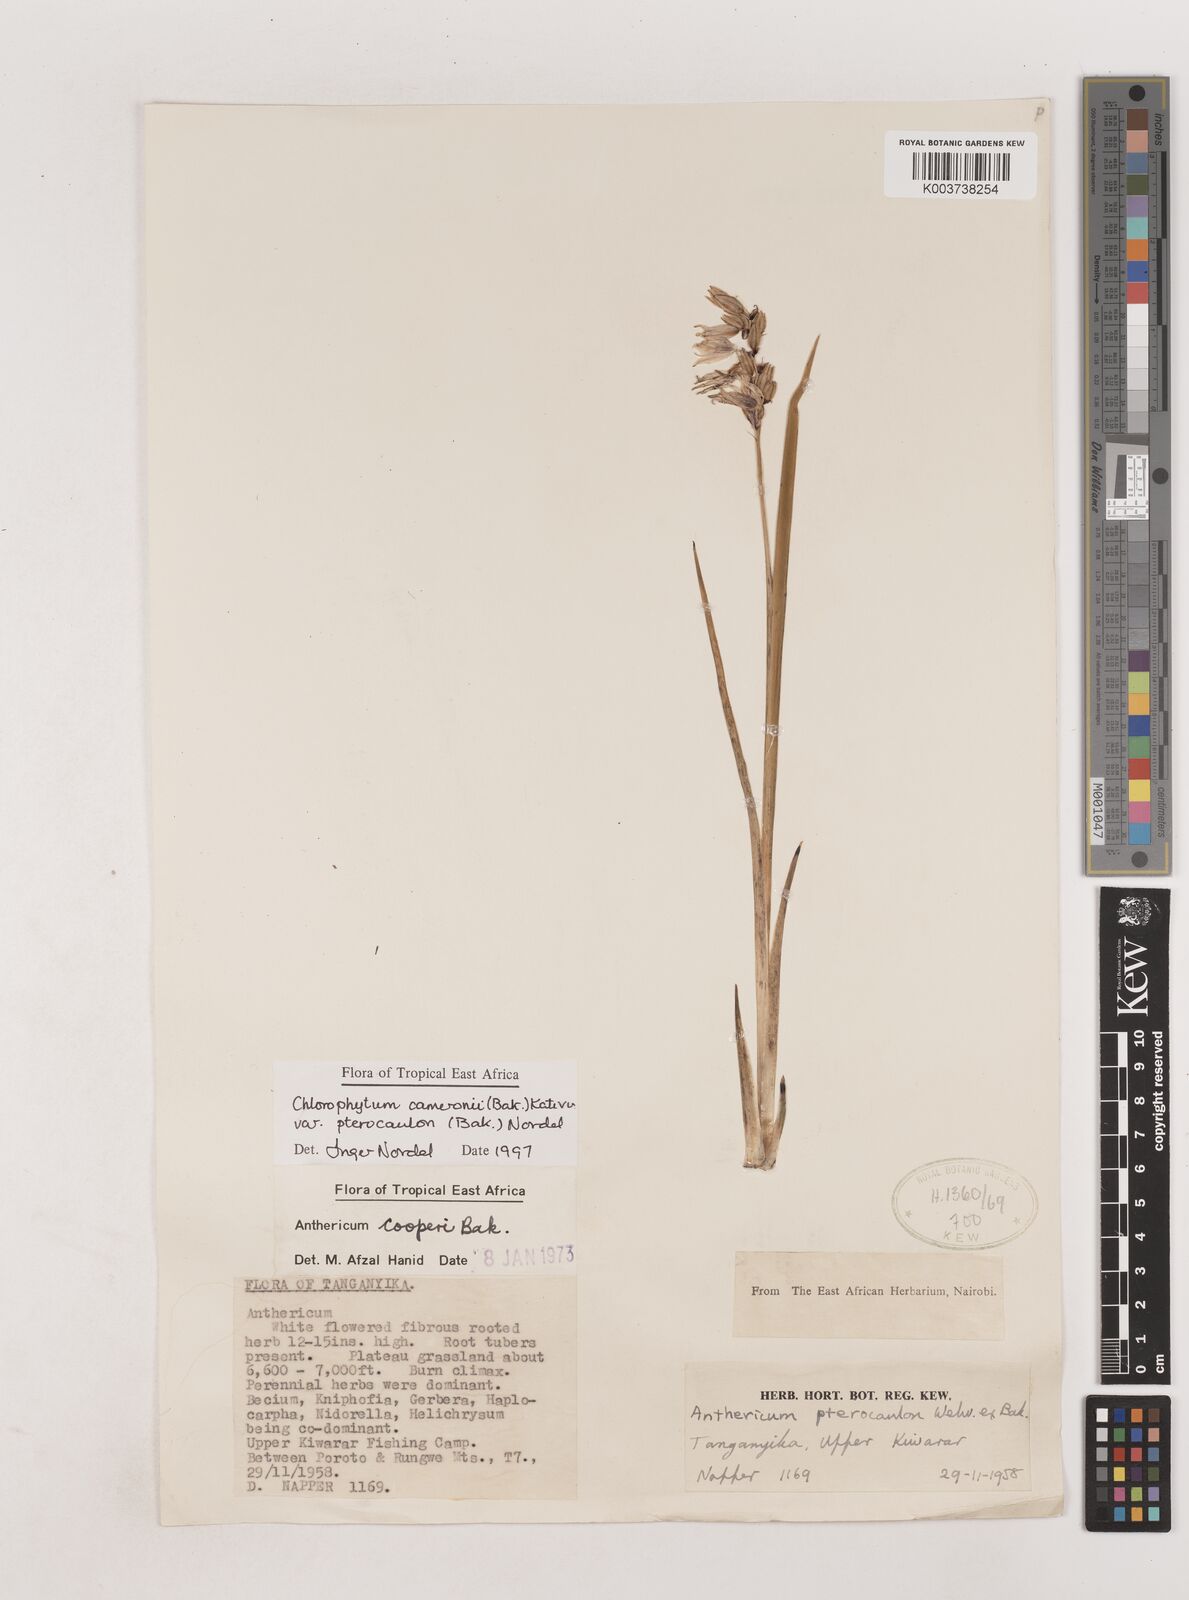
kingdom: Plantae
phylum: Tracheophyta
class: Liliopsida
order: Asparagales
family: Asparagaceae
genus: Chlorophytum
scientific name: Chlorophytum cameronii
